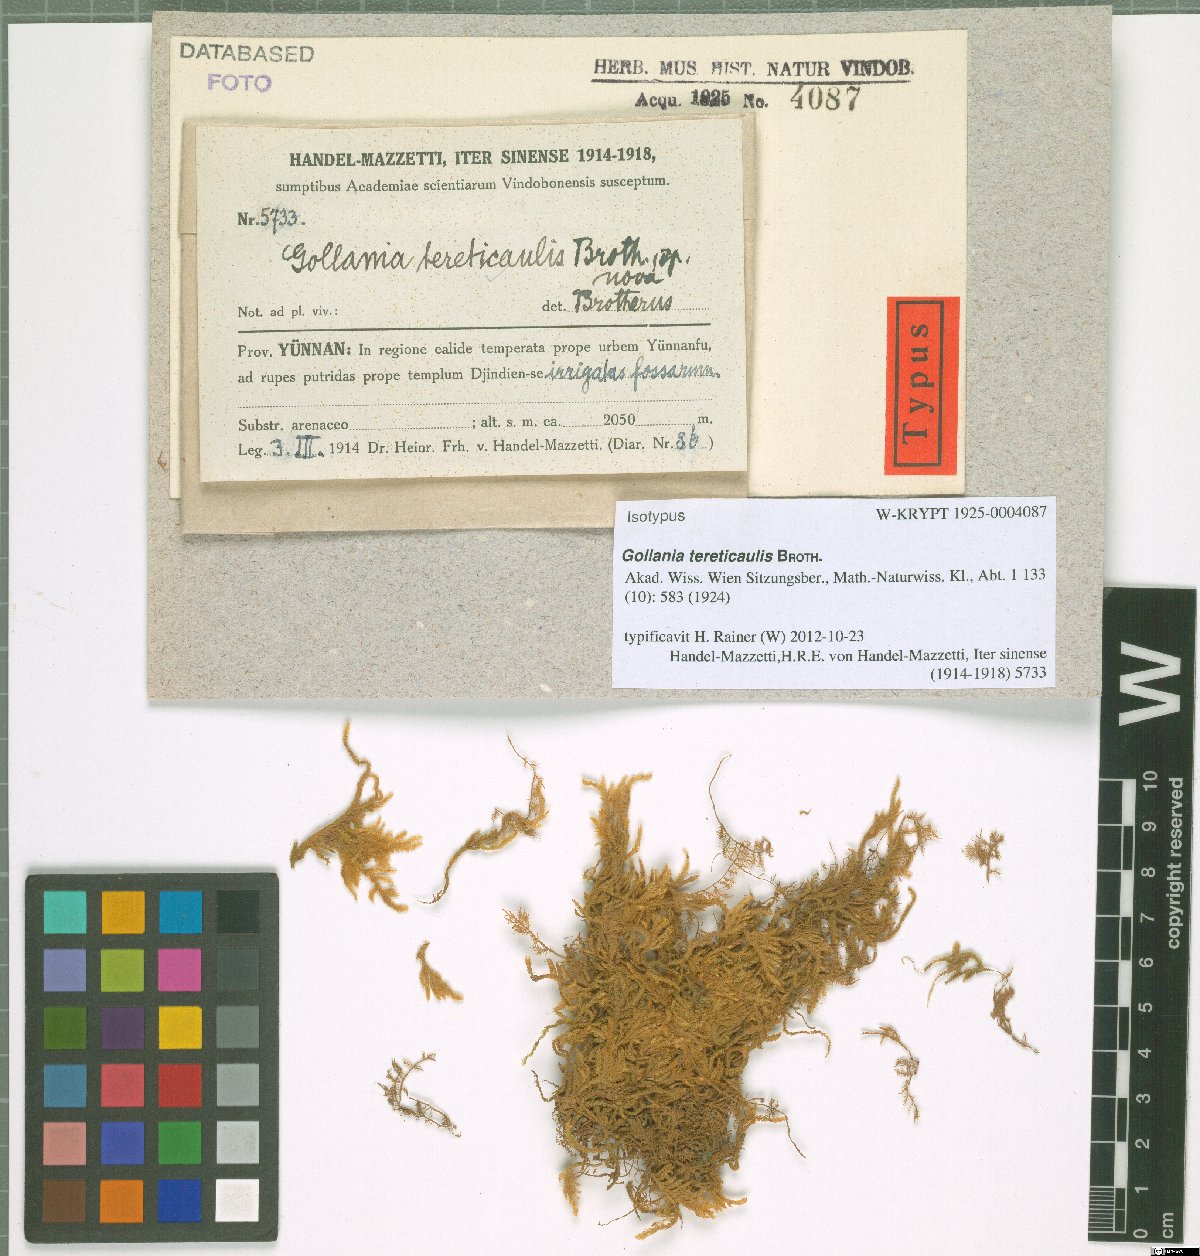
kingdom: Plantae
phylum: Bryophyta
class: Bryopsida
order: Hypnales
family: Hypnaceae
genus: Gollania
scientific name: Gollania tereticaulis
